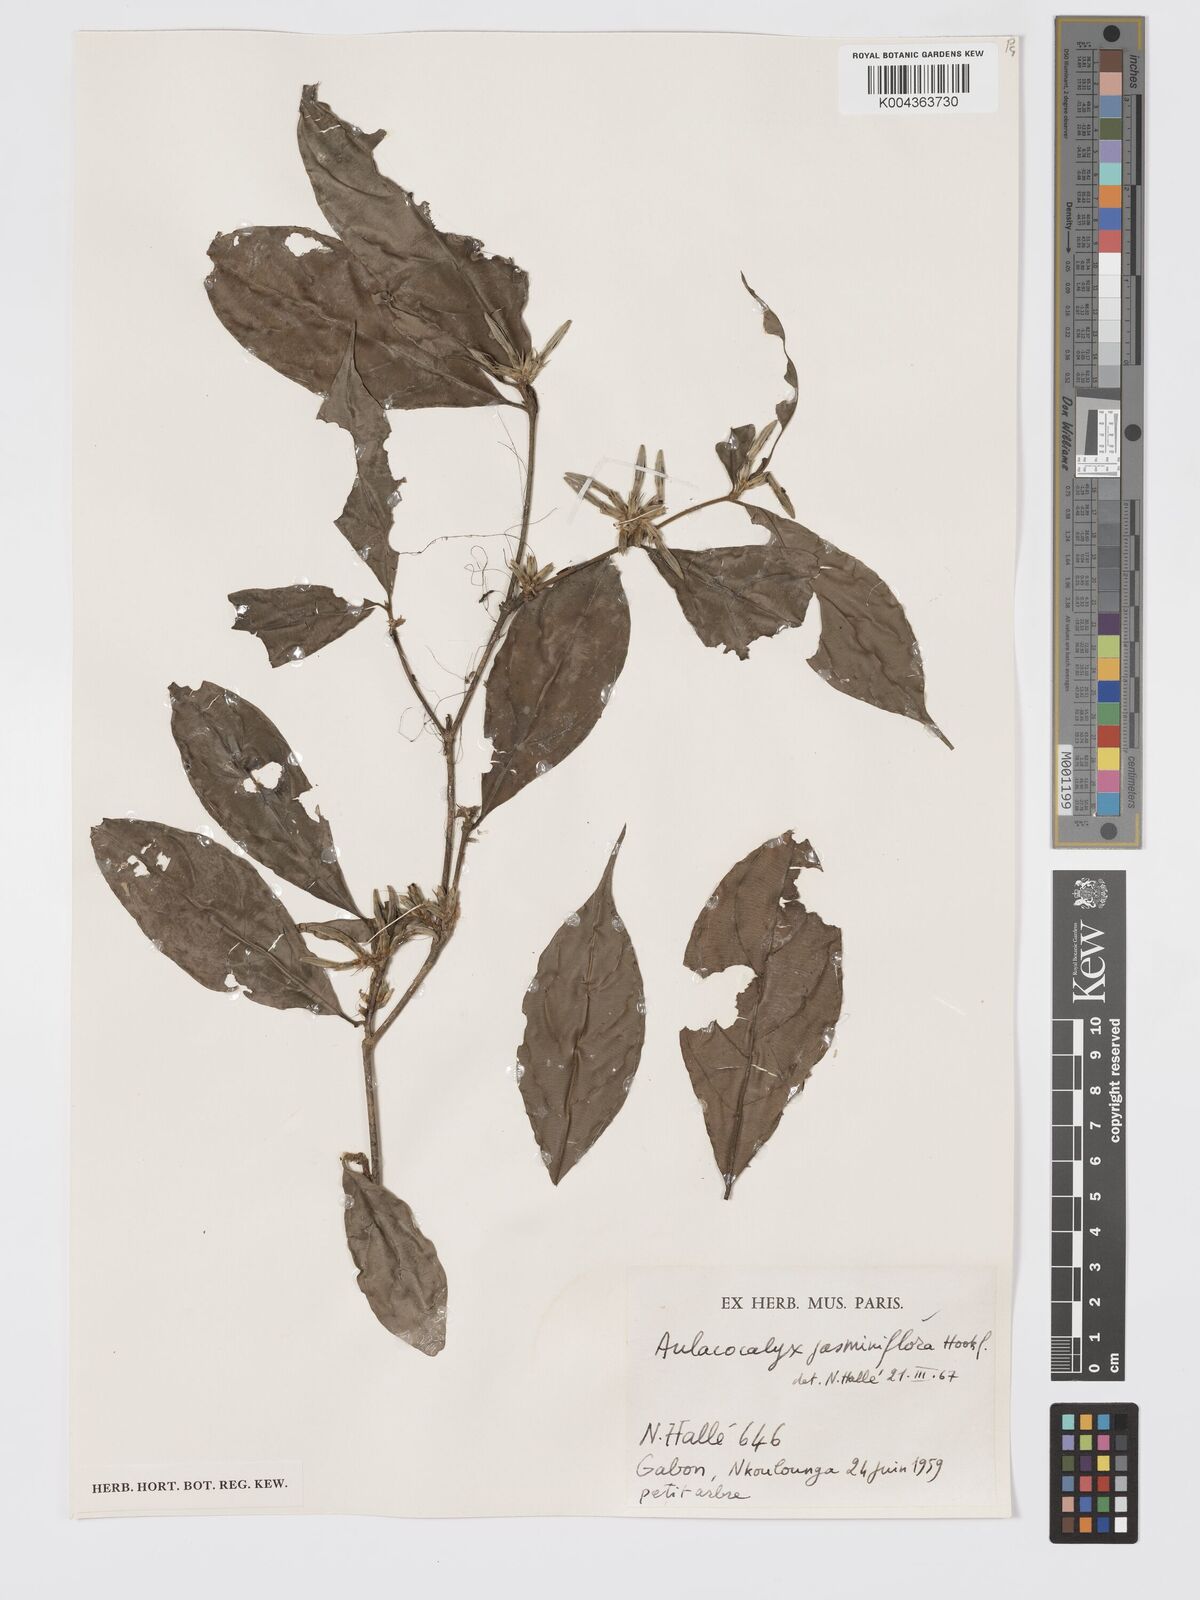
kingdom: Plantae
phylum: Tracheophyta
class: Magnoliopsida
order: Gentianales
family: Rubiaceae
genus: Aulacocalyx
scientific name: Aulacocalyx jasminiflora
